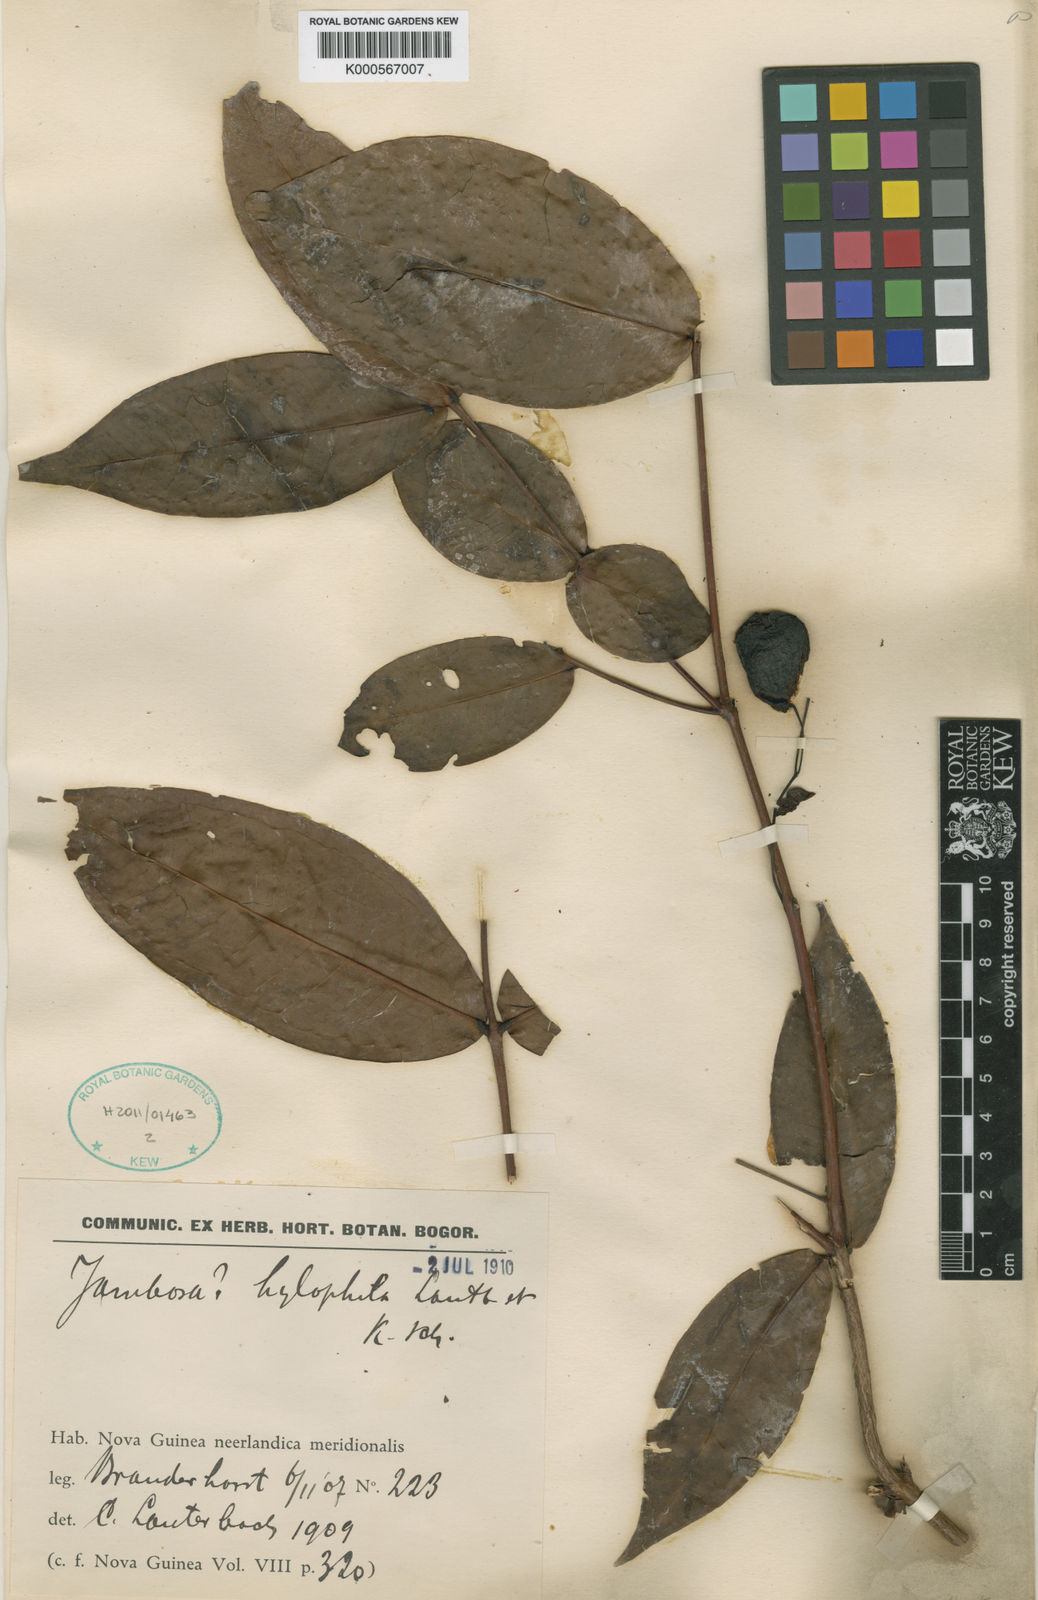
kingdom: Plantae
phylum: Tracheophyta
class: Magnoliopsida
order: Myrtales
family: Myrtaceae
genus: Syzygium
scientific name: Syzygium roemeri
